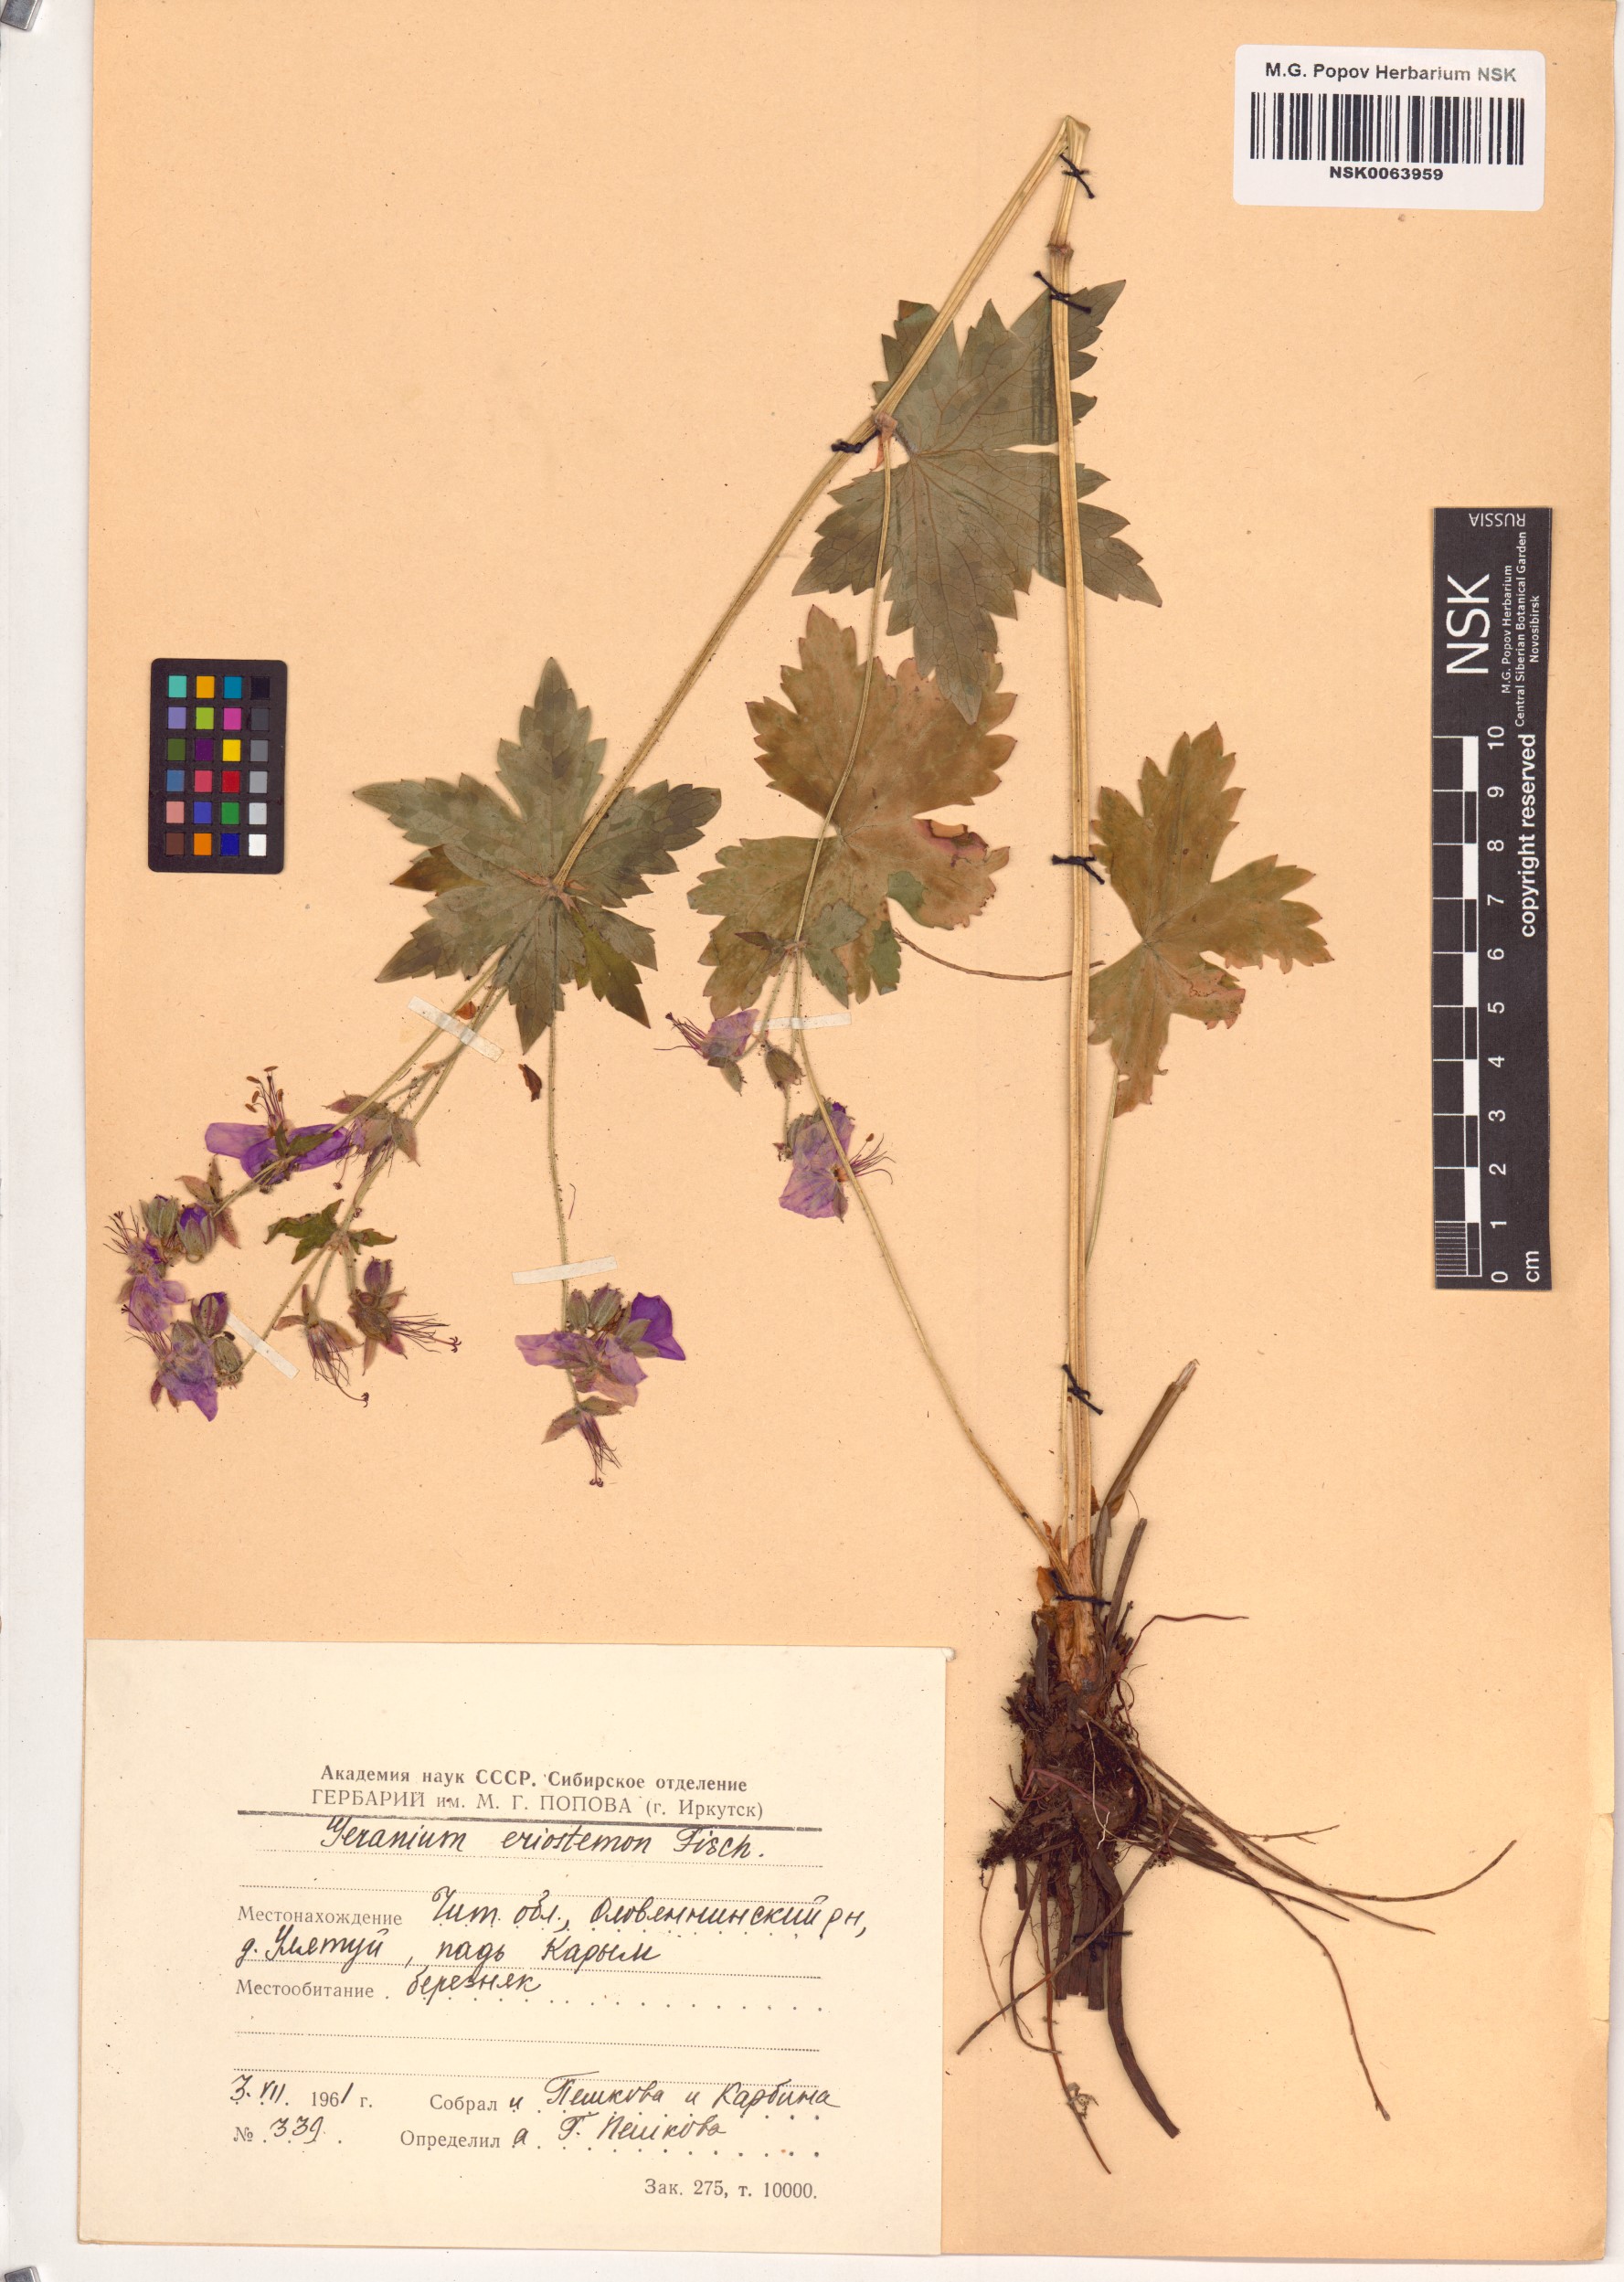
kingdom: Plantae
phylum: Tracheophyta
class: Magnoliopsida
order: Geraniales
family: Geraniaceae
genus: Geranium
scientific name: Geranium platyanthum
